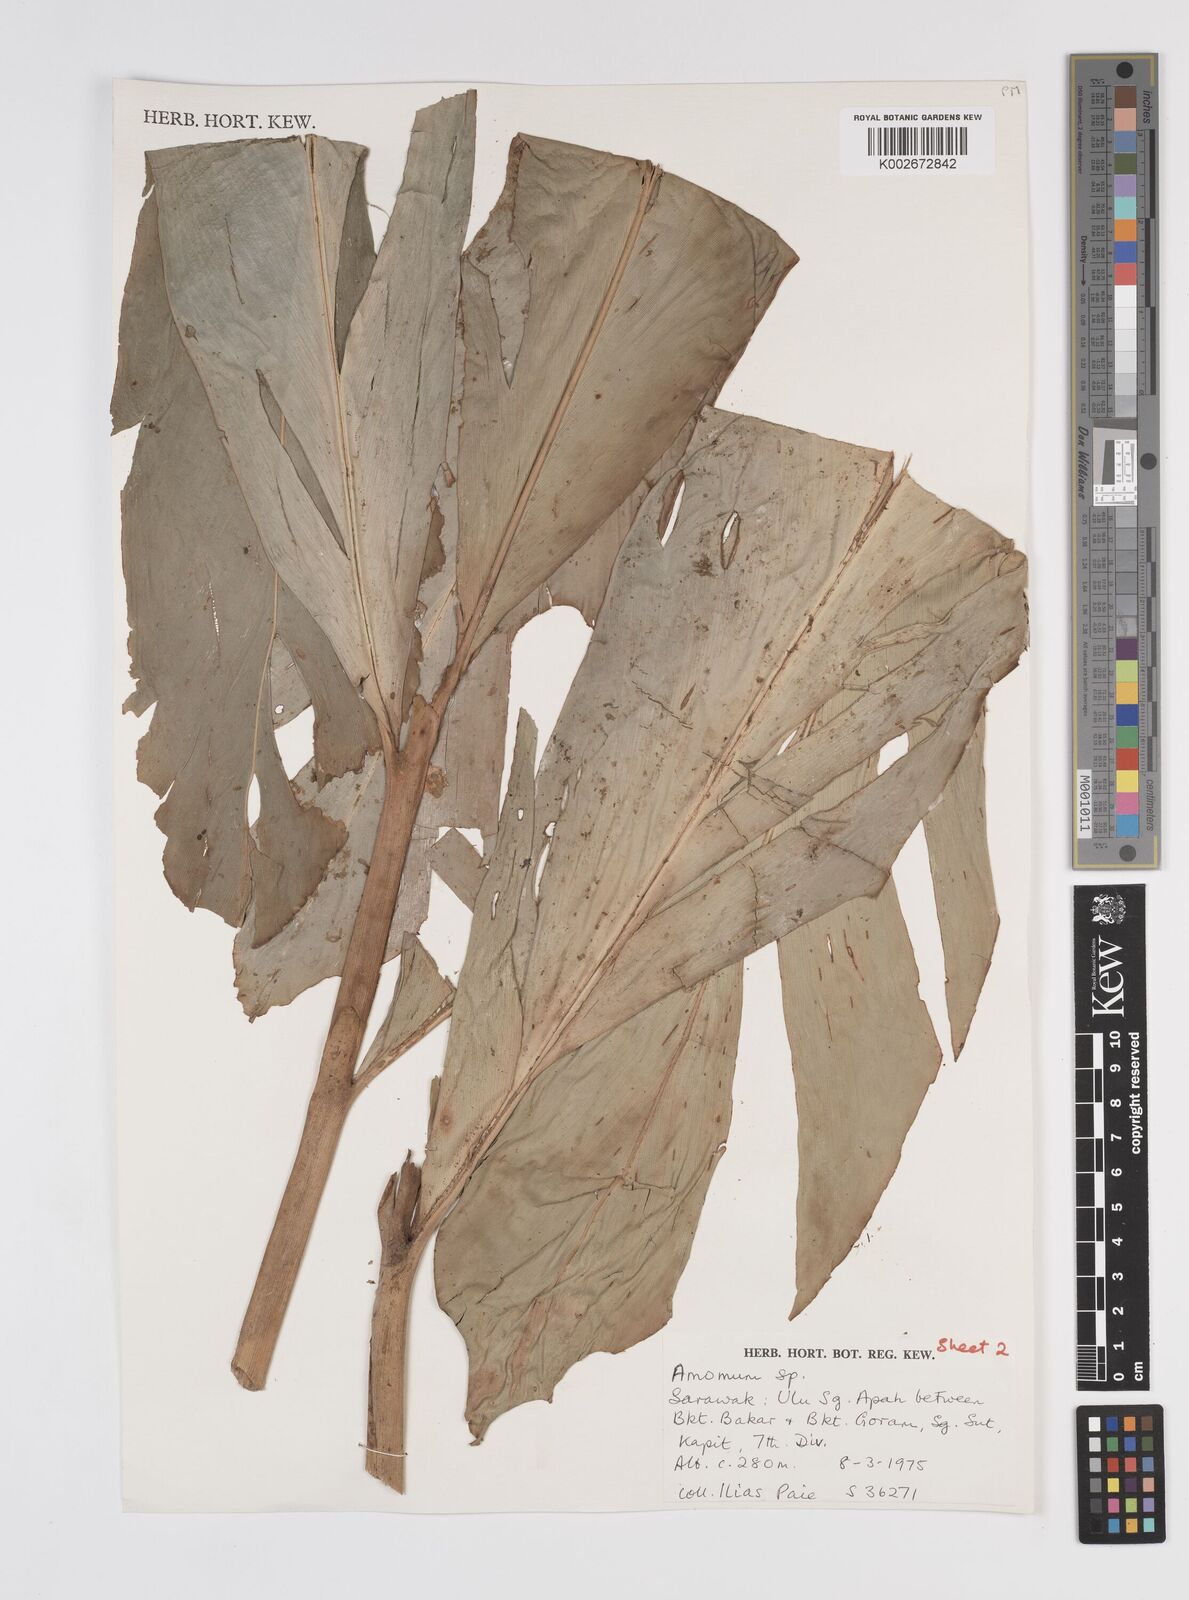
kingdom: Plantae
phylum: Tracheophyta
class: Liliopsida
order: Zingiberales
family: Zingiberaceae
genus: Etlingera
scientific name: Etlingera
